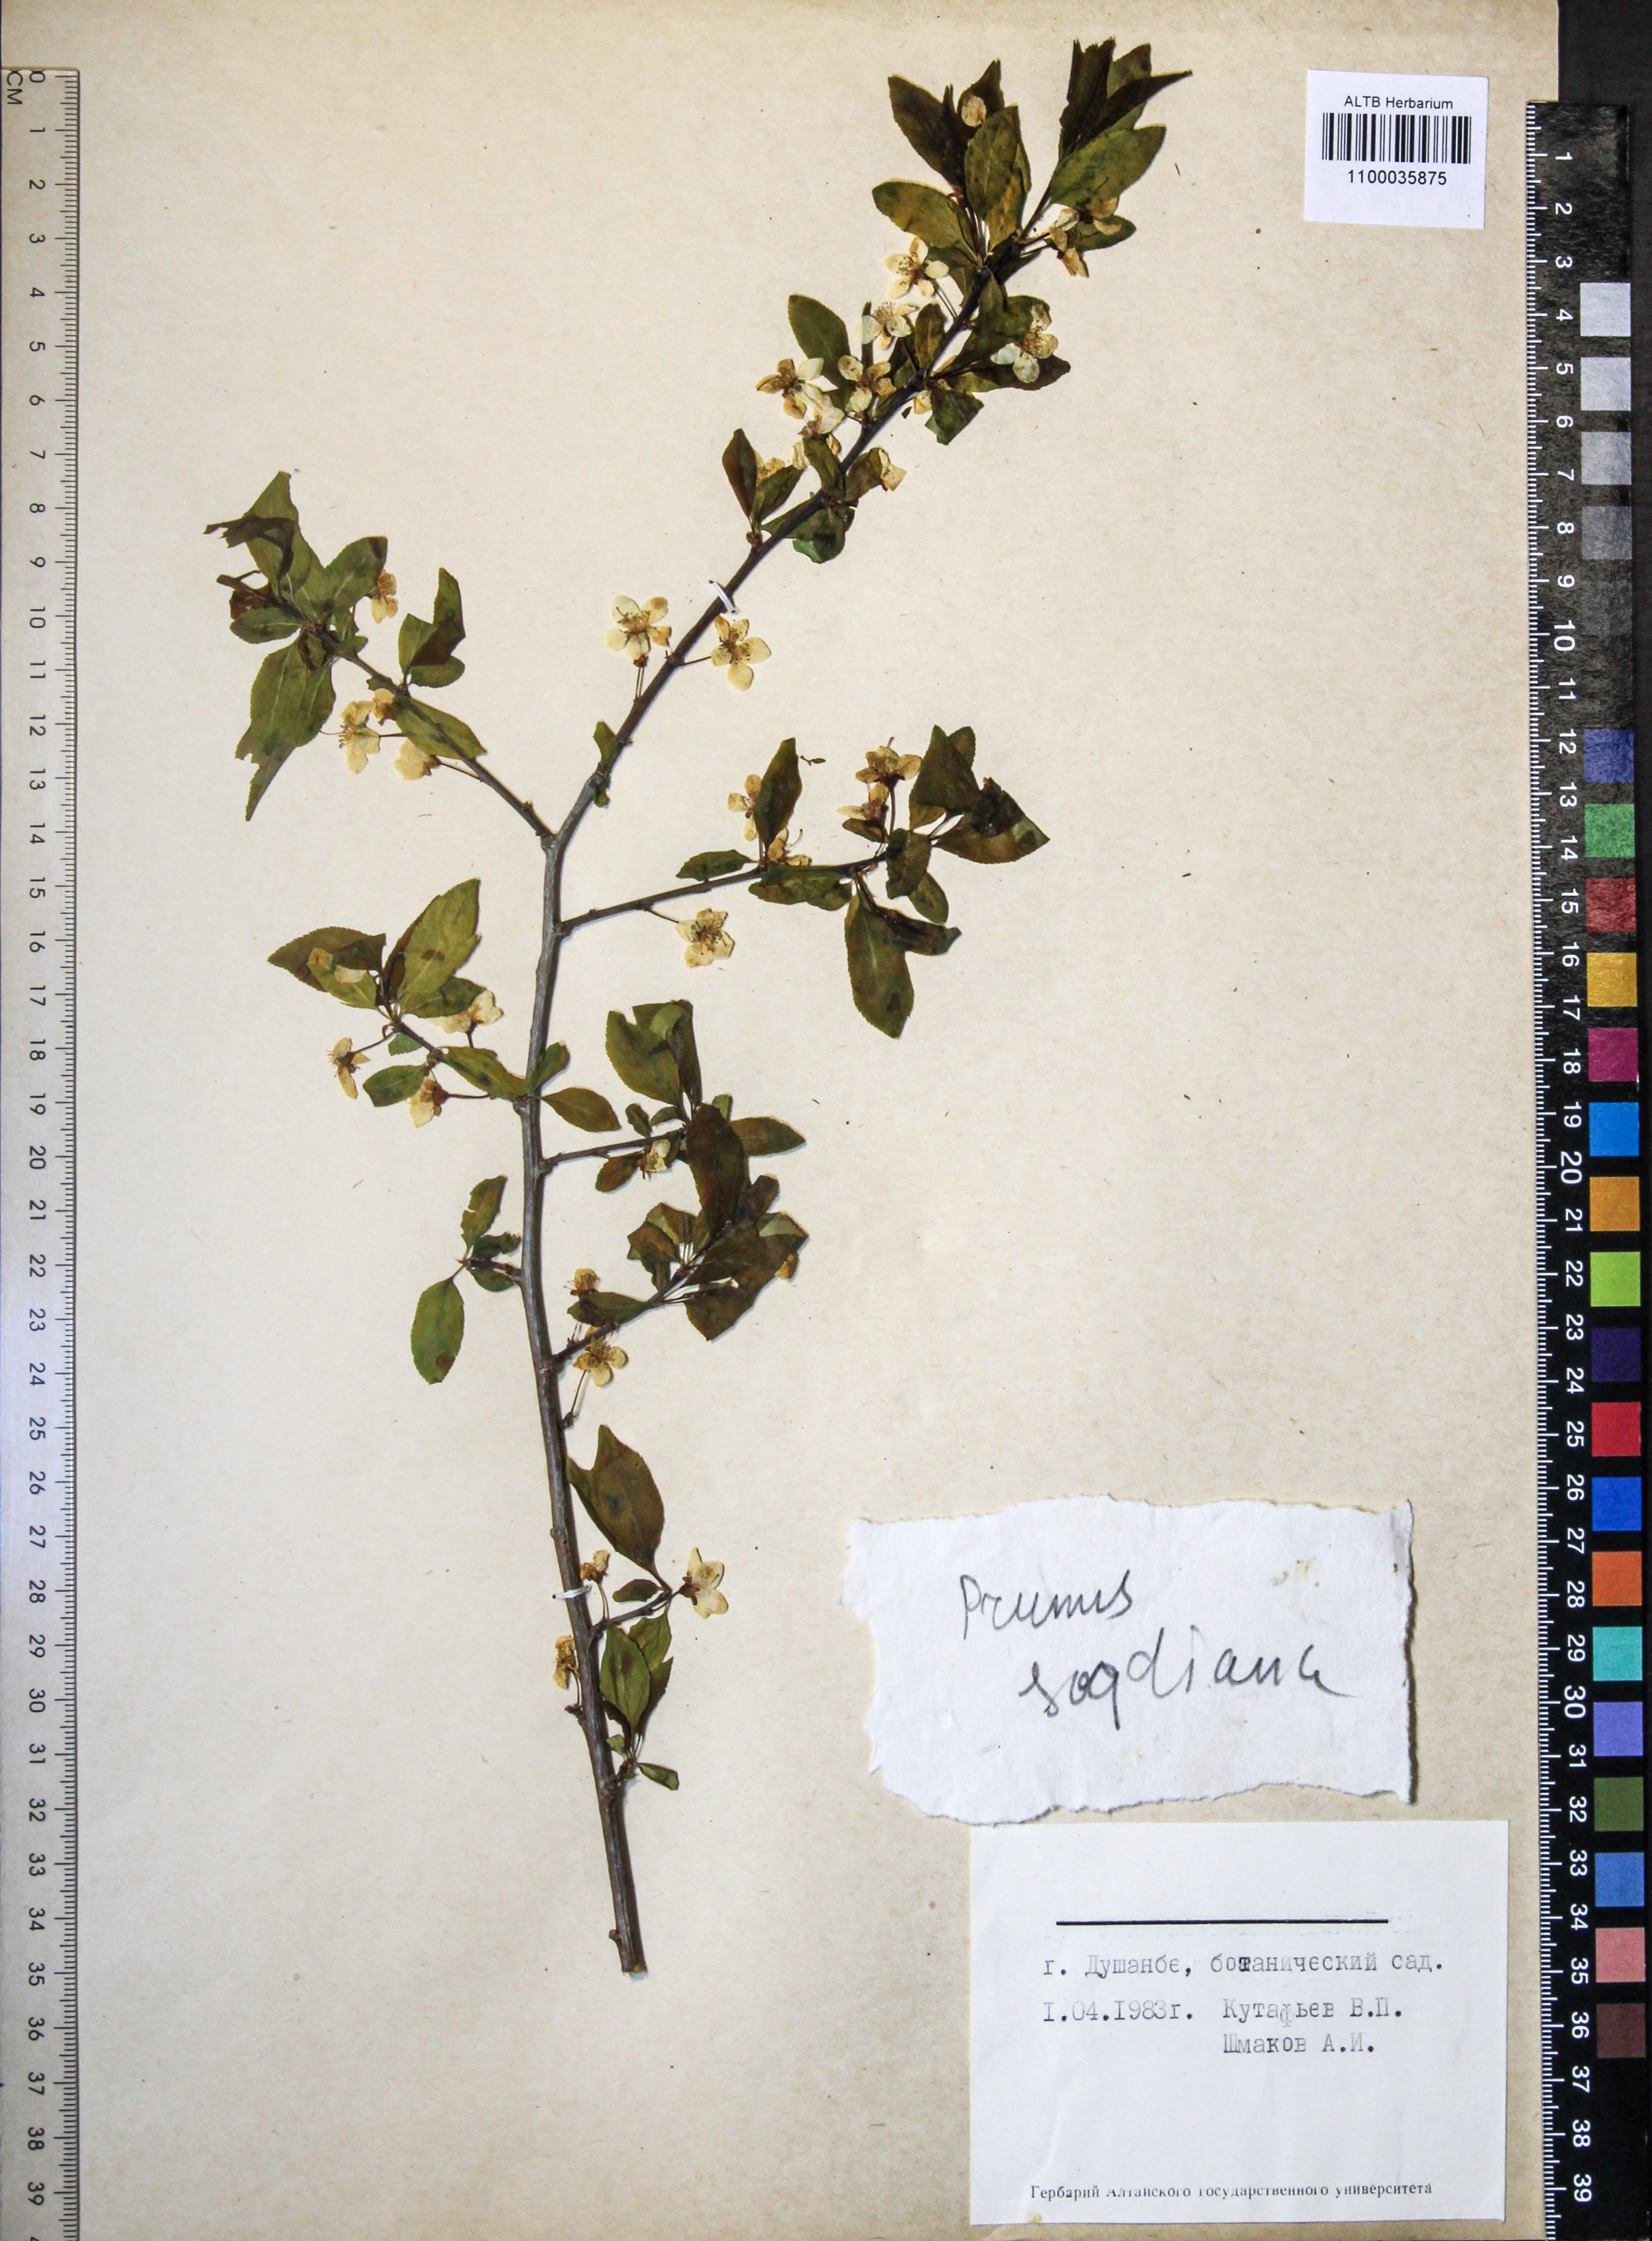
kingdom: Plantae
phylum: Tracheophyta
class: Magnoliopsida
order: Rosales
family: Rosaceae
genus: Prunus
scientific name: Prunus cerasifera
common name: Cherry plum
